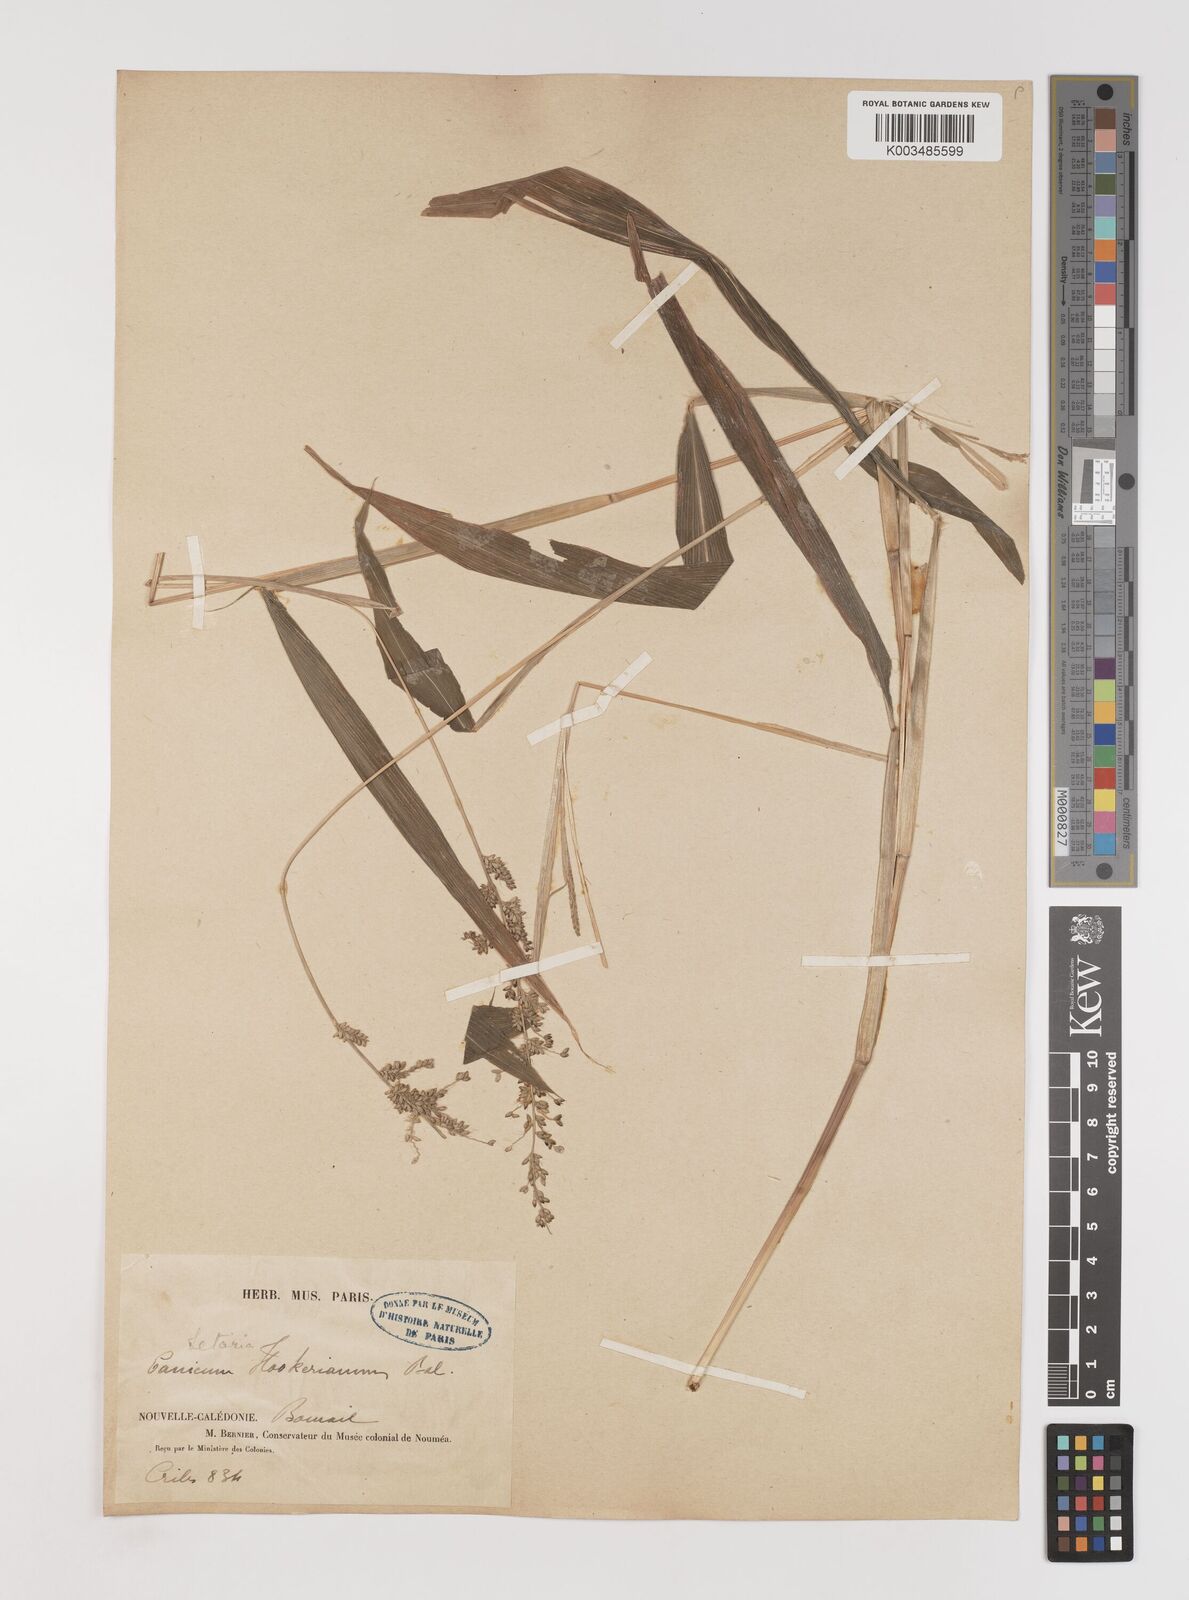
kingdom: Plantae
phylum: Tracheophyta
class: Liliopsida
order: Poales
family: Poaceae
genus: Setaria
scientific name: Setaria barbata
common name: East indian bristlegrass
